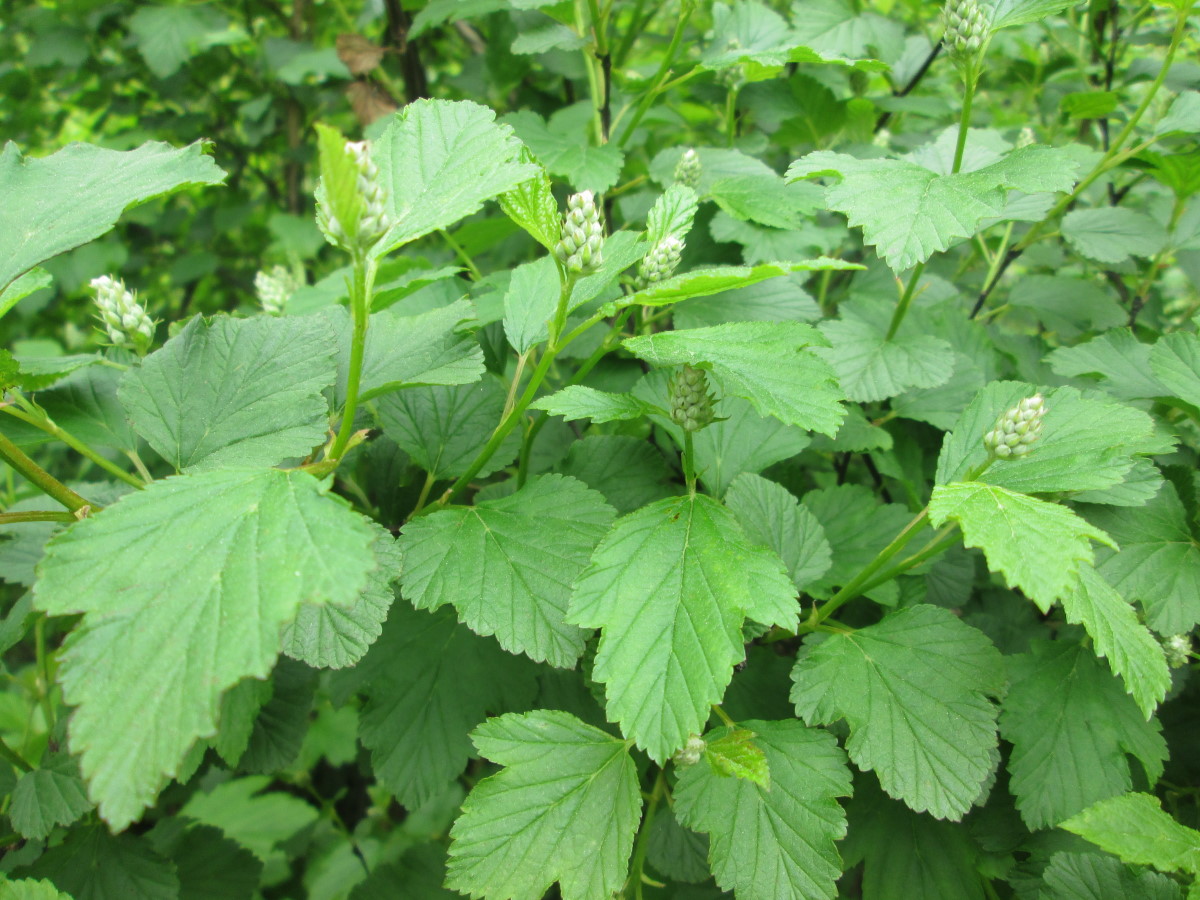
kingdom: Plantae
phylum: Tracheophyta
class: Magnoliopsida
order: Rosales
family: Rosaceae
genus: Physocarpus
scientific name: Physocarpus opulifolius
